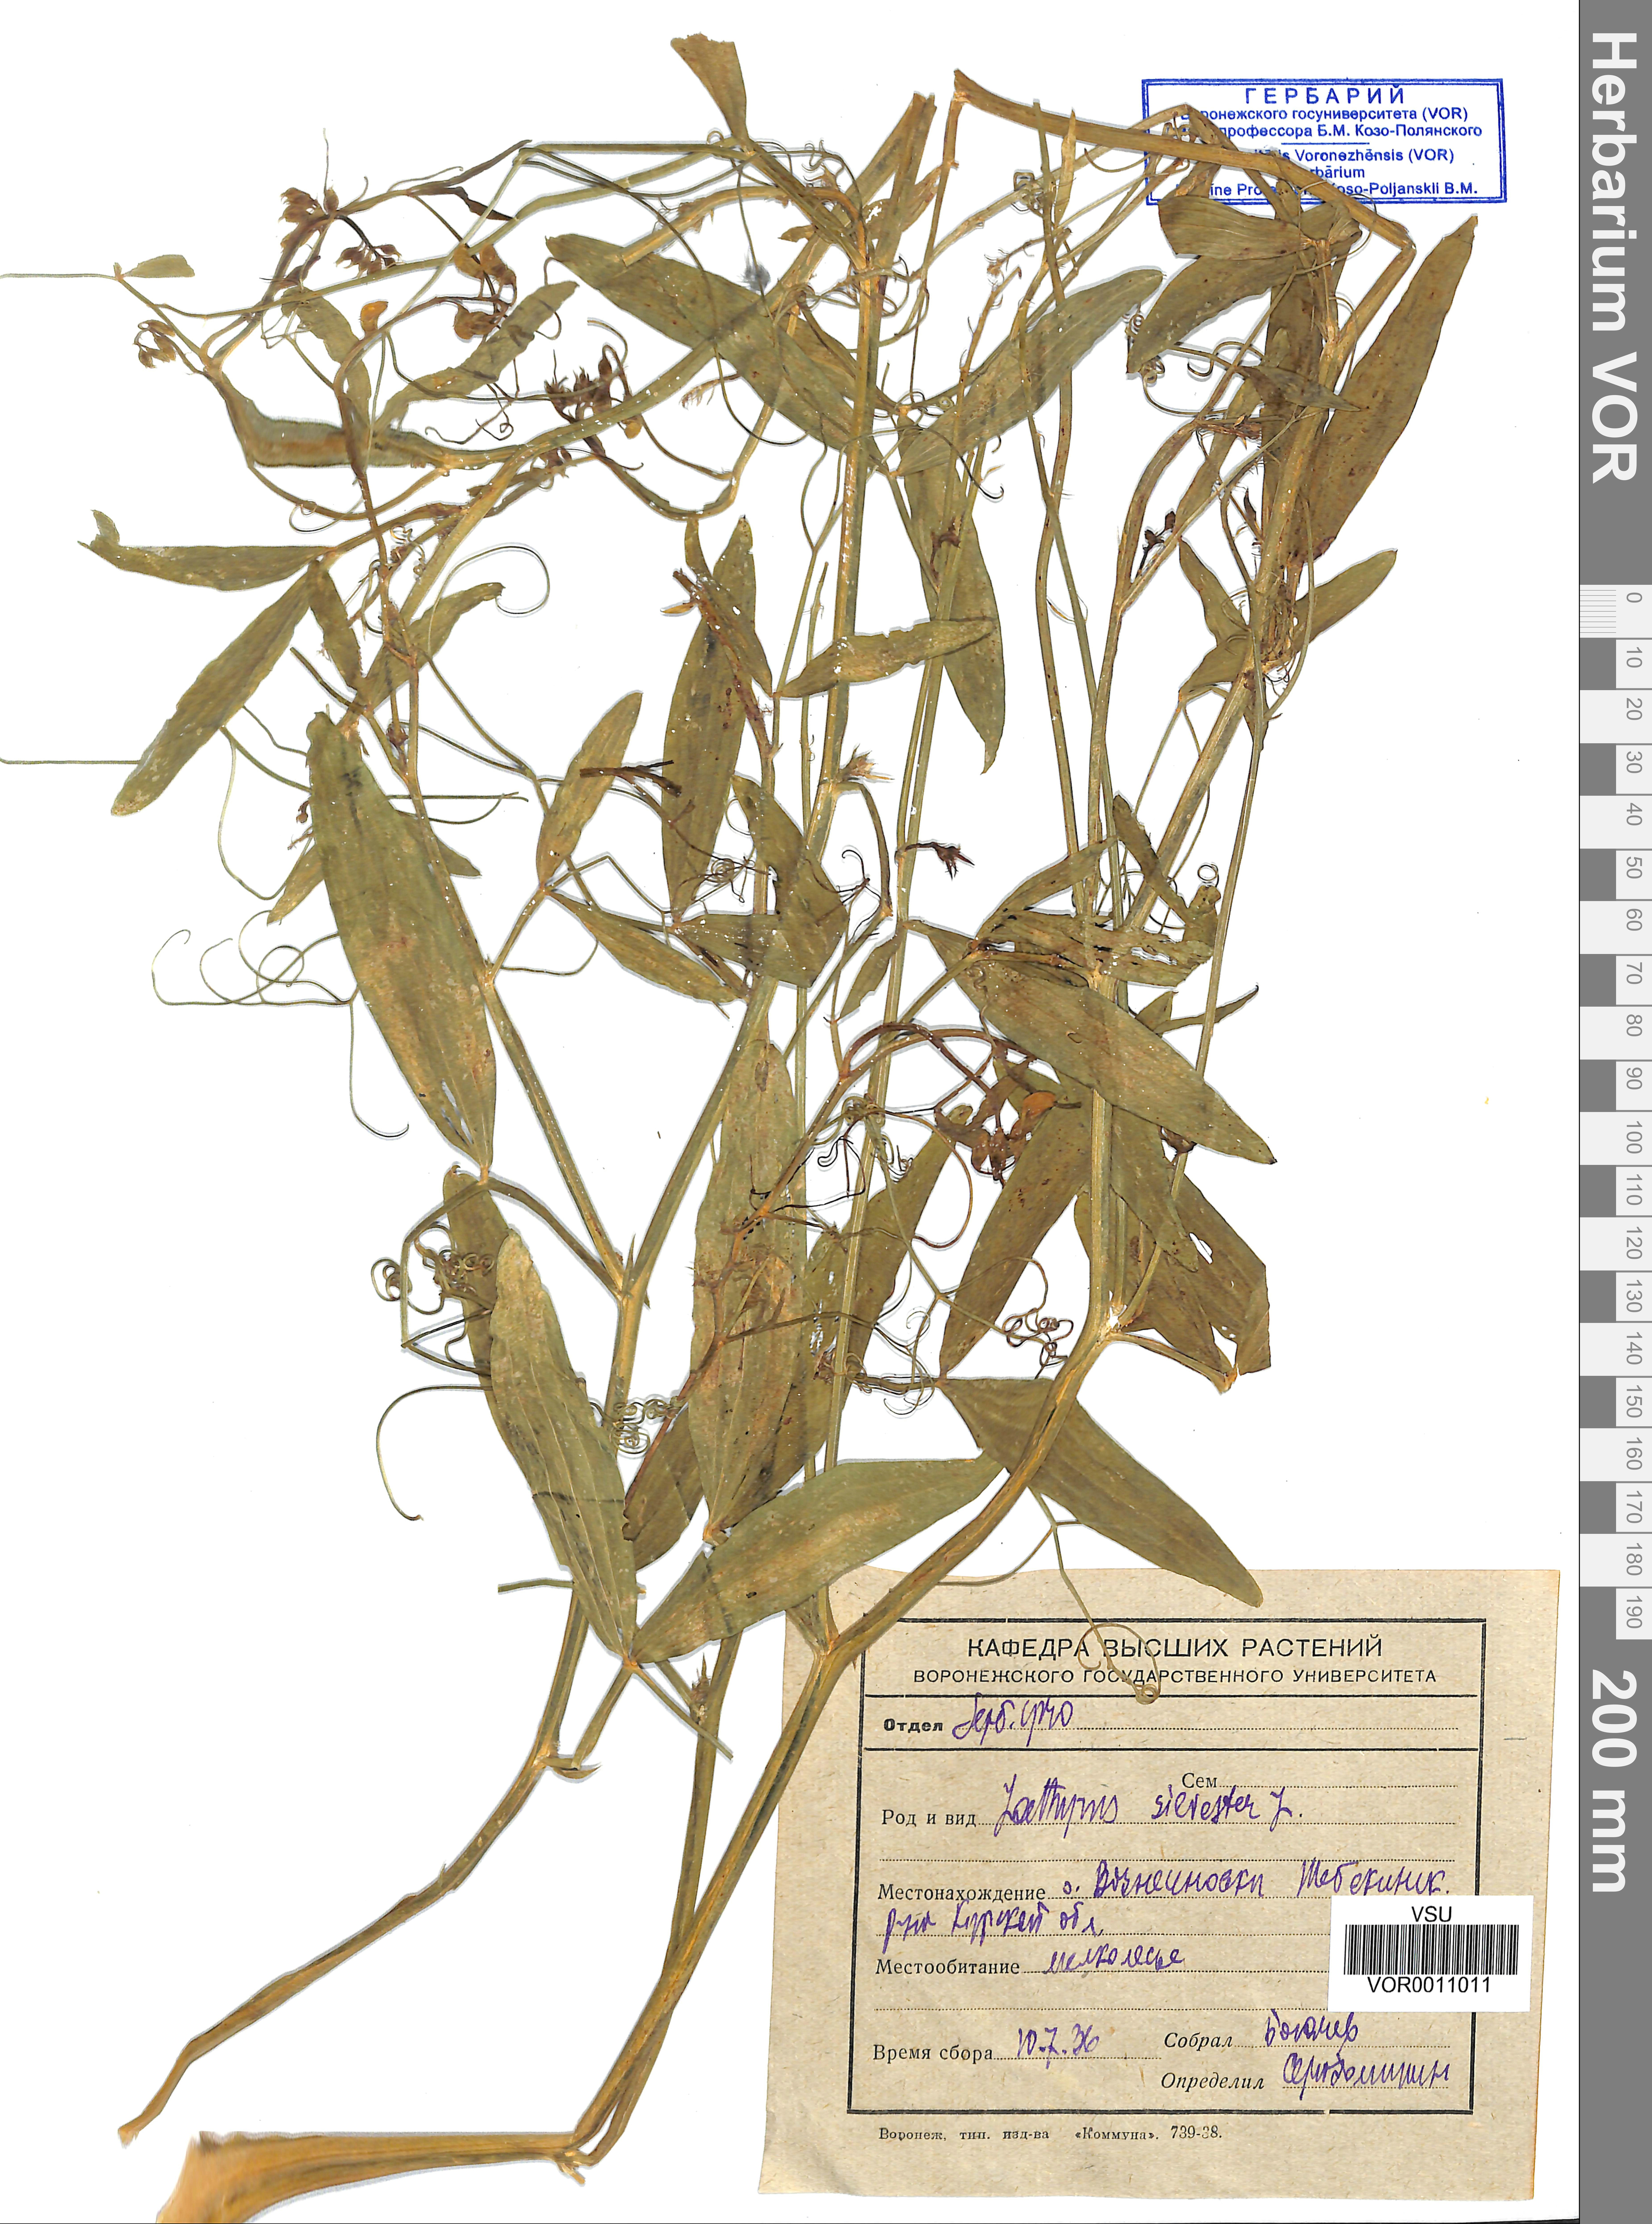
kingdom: Plantae
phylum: Tracheophyta
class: Magnoliopsida
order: Fabales
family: Fabaceae
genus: Lathyrus
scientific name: Lathyrus sylvestris
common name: Flat pea
